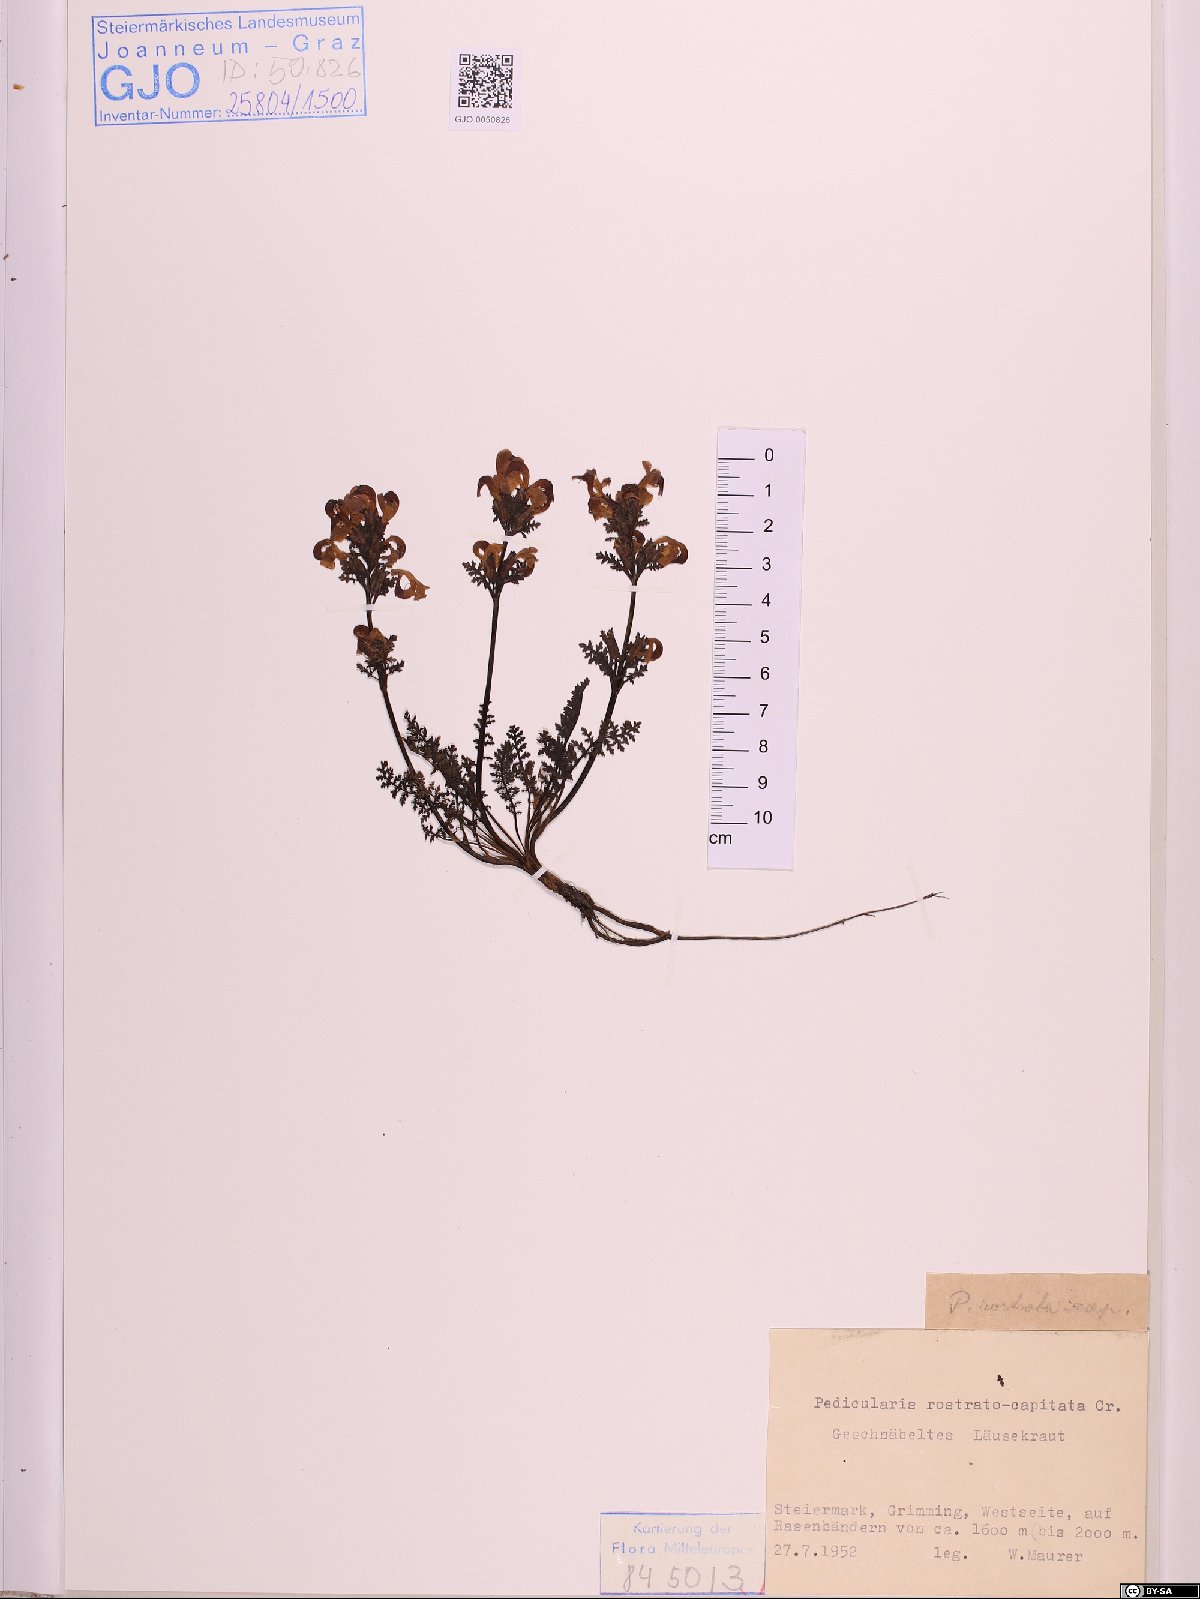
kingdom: Plantae
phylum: Bryophyta
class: Bryopsida
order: Timmiales
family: Timmiaceae
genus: Timmia
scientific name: Timmia bavarica
